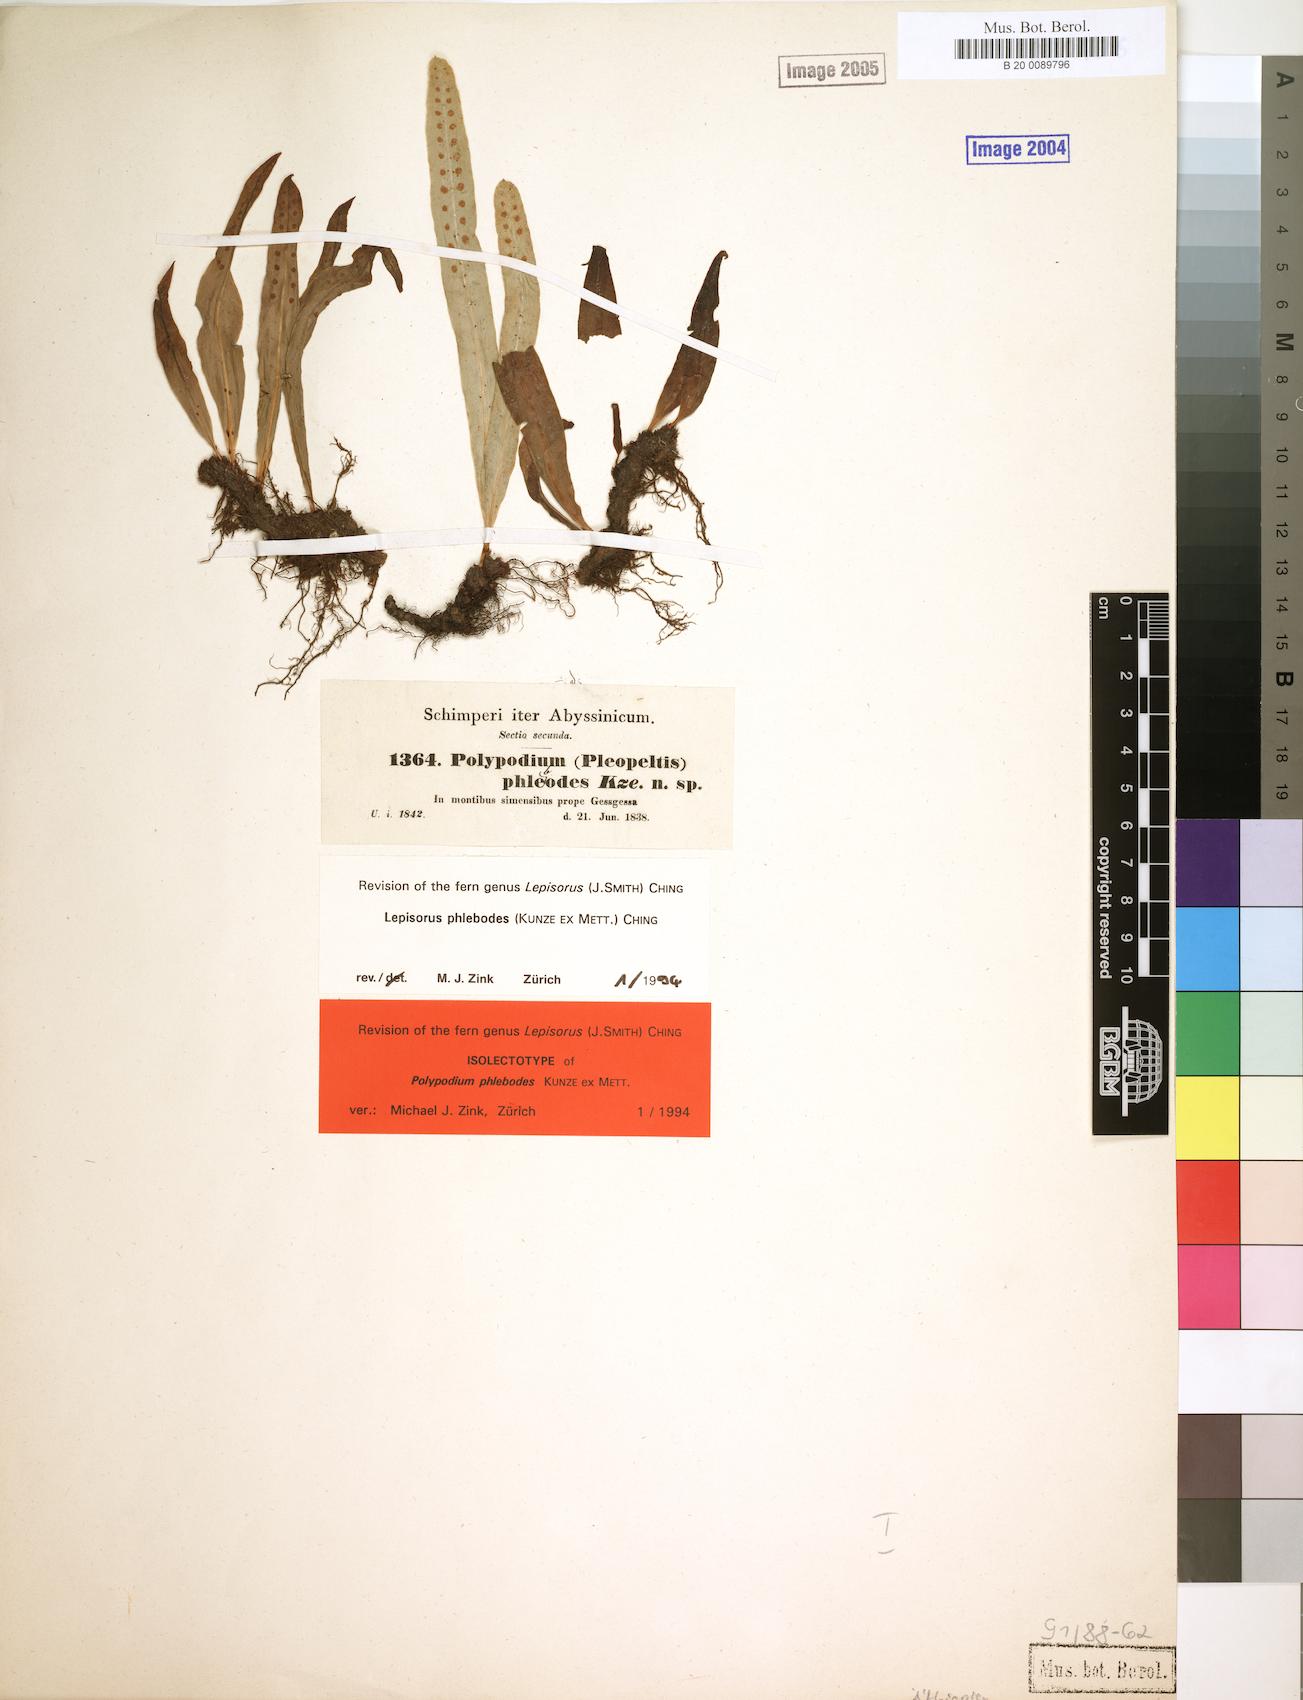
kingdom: Plantae
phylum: Tracheophyta
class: Polypodiopsida
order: Polypodiales
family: Polypodiaceae
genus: Lepisorus
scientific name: Lepisorus excavatus
